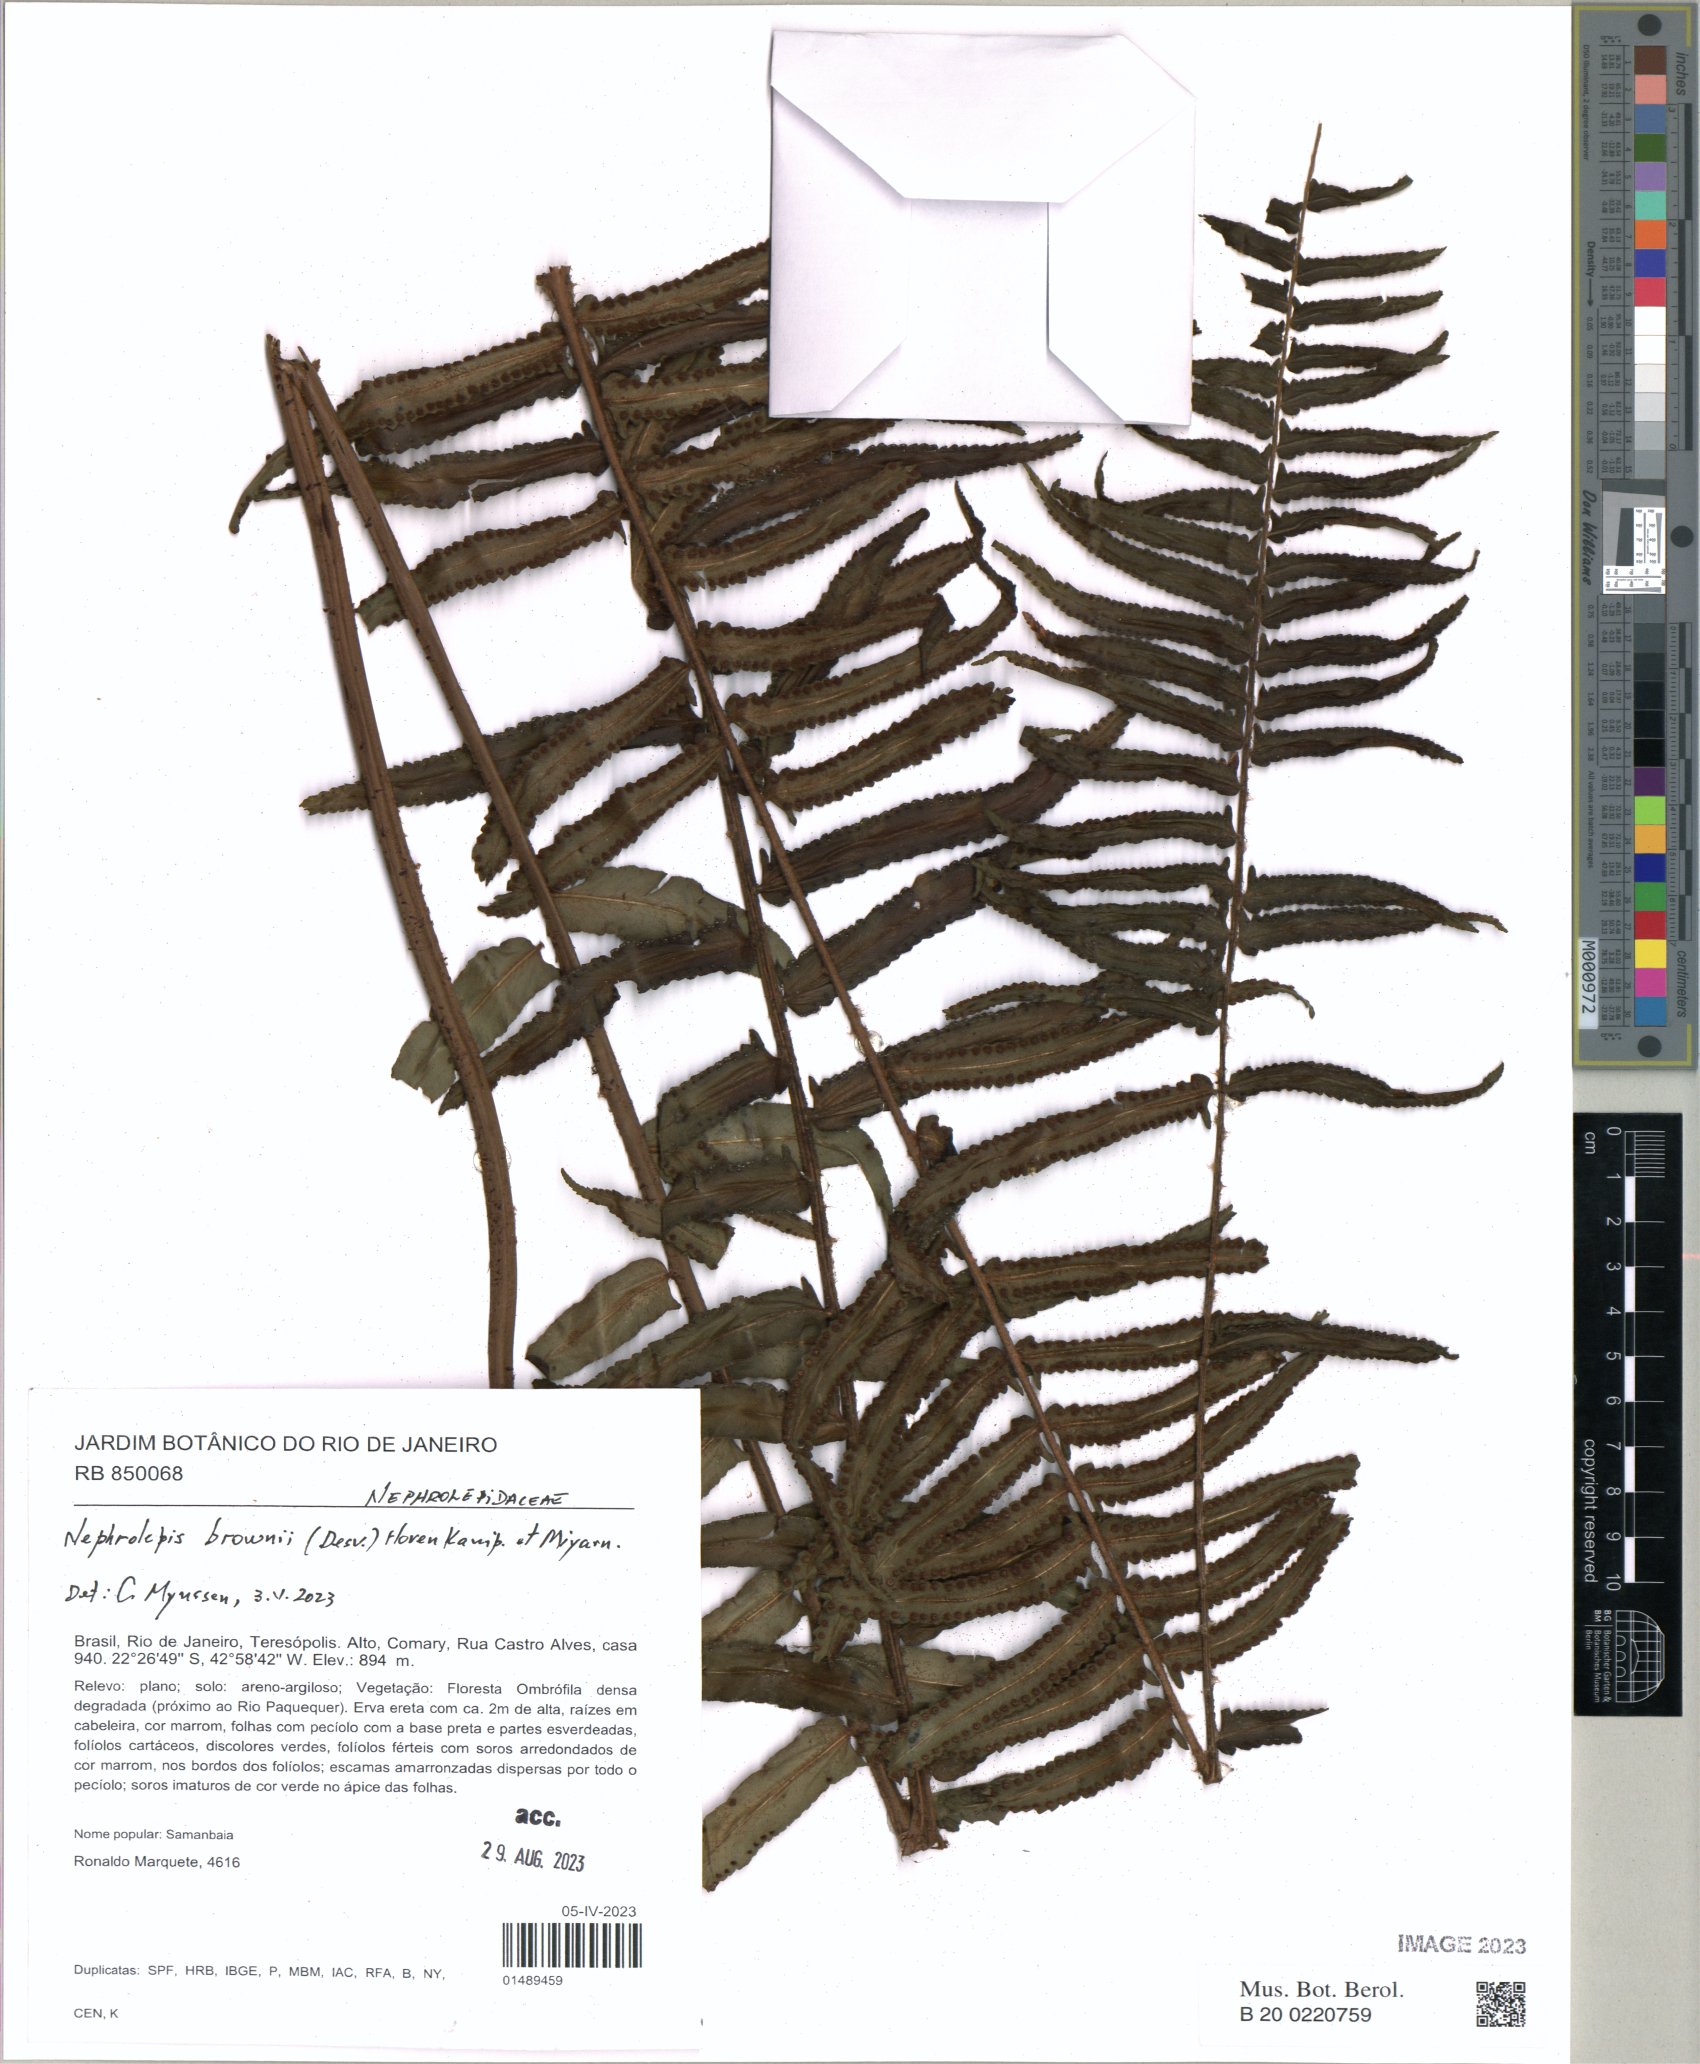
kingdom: Plantae
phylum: Tracheophyta
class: Polypodiopsida
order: Polypodiales
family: Nephrolepidaceae
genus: Nephrolepis
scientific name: Nephrolepis brownii
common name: Asian swordfern
